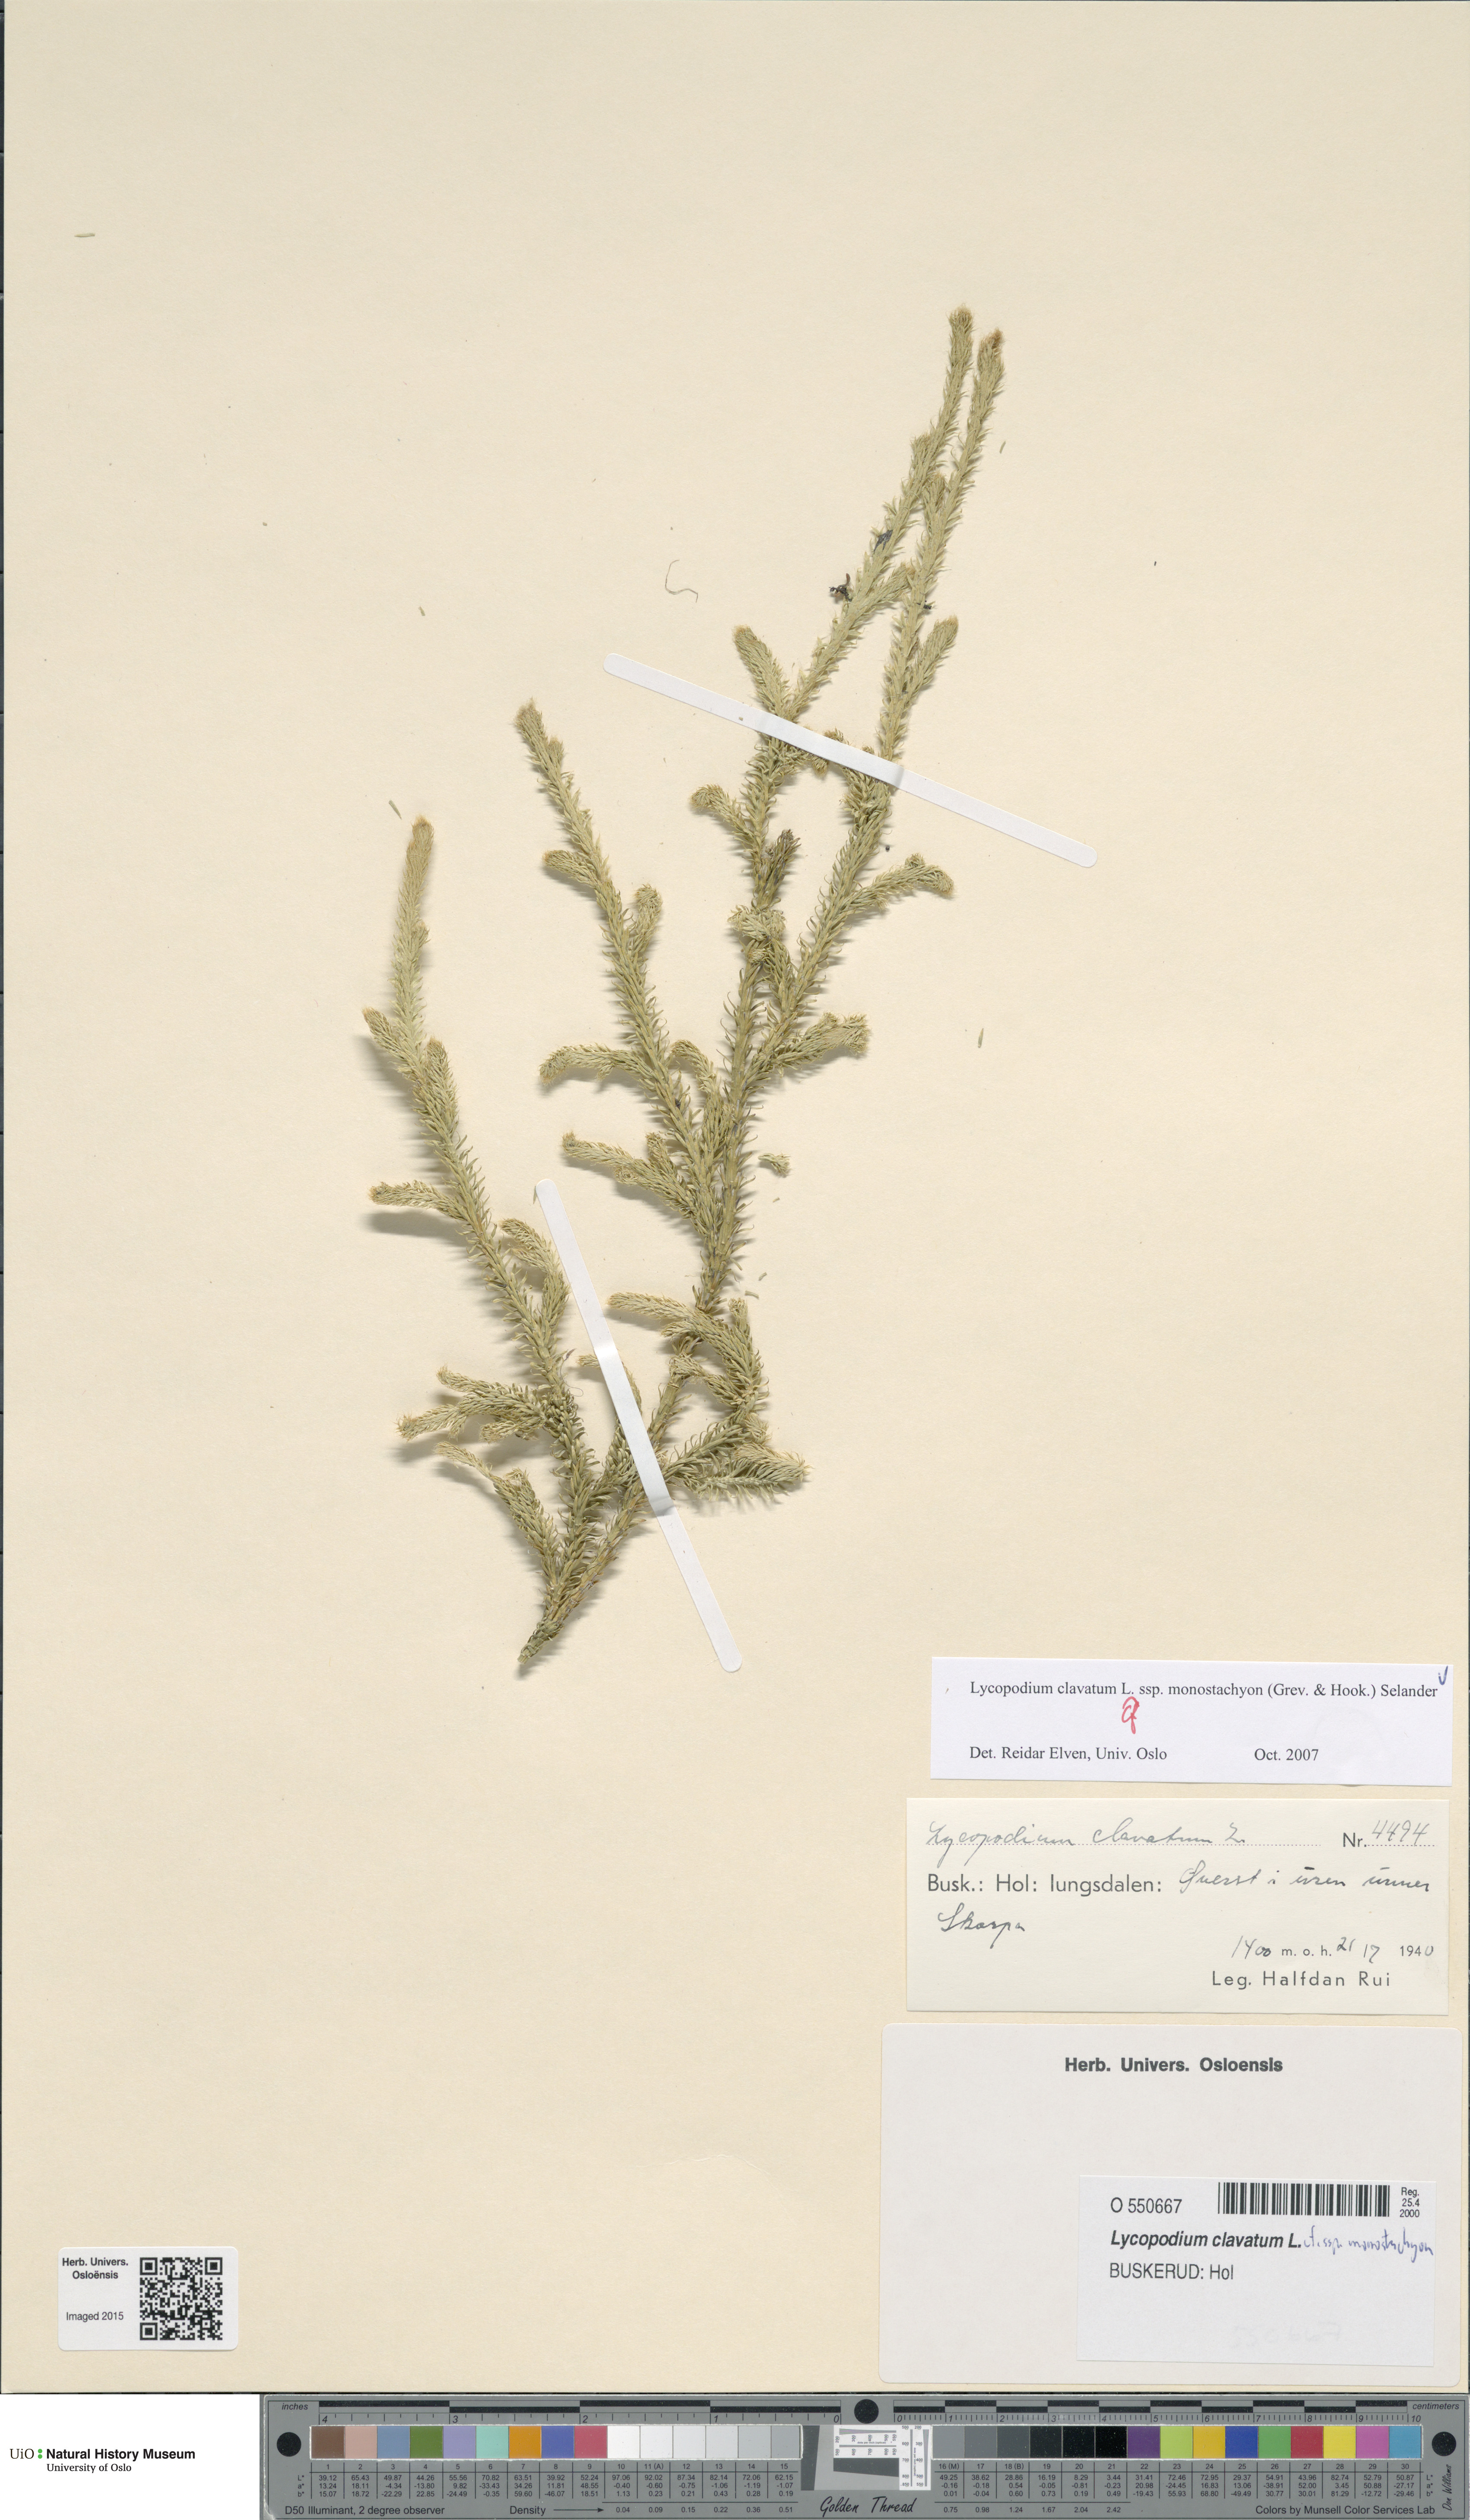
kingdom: Plantae
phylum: Tracheophyta
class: Lycopodiopsida
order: Lycopodiales
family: Lycopodiaceae
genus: Lycopodium
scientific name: Lycopodium lagopus
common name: One-cone clubmoss
